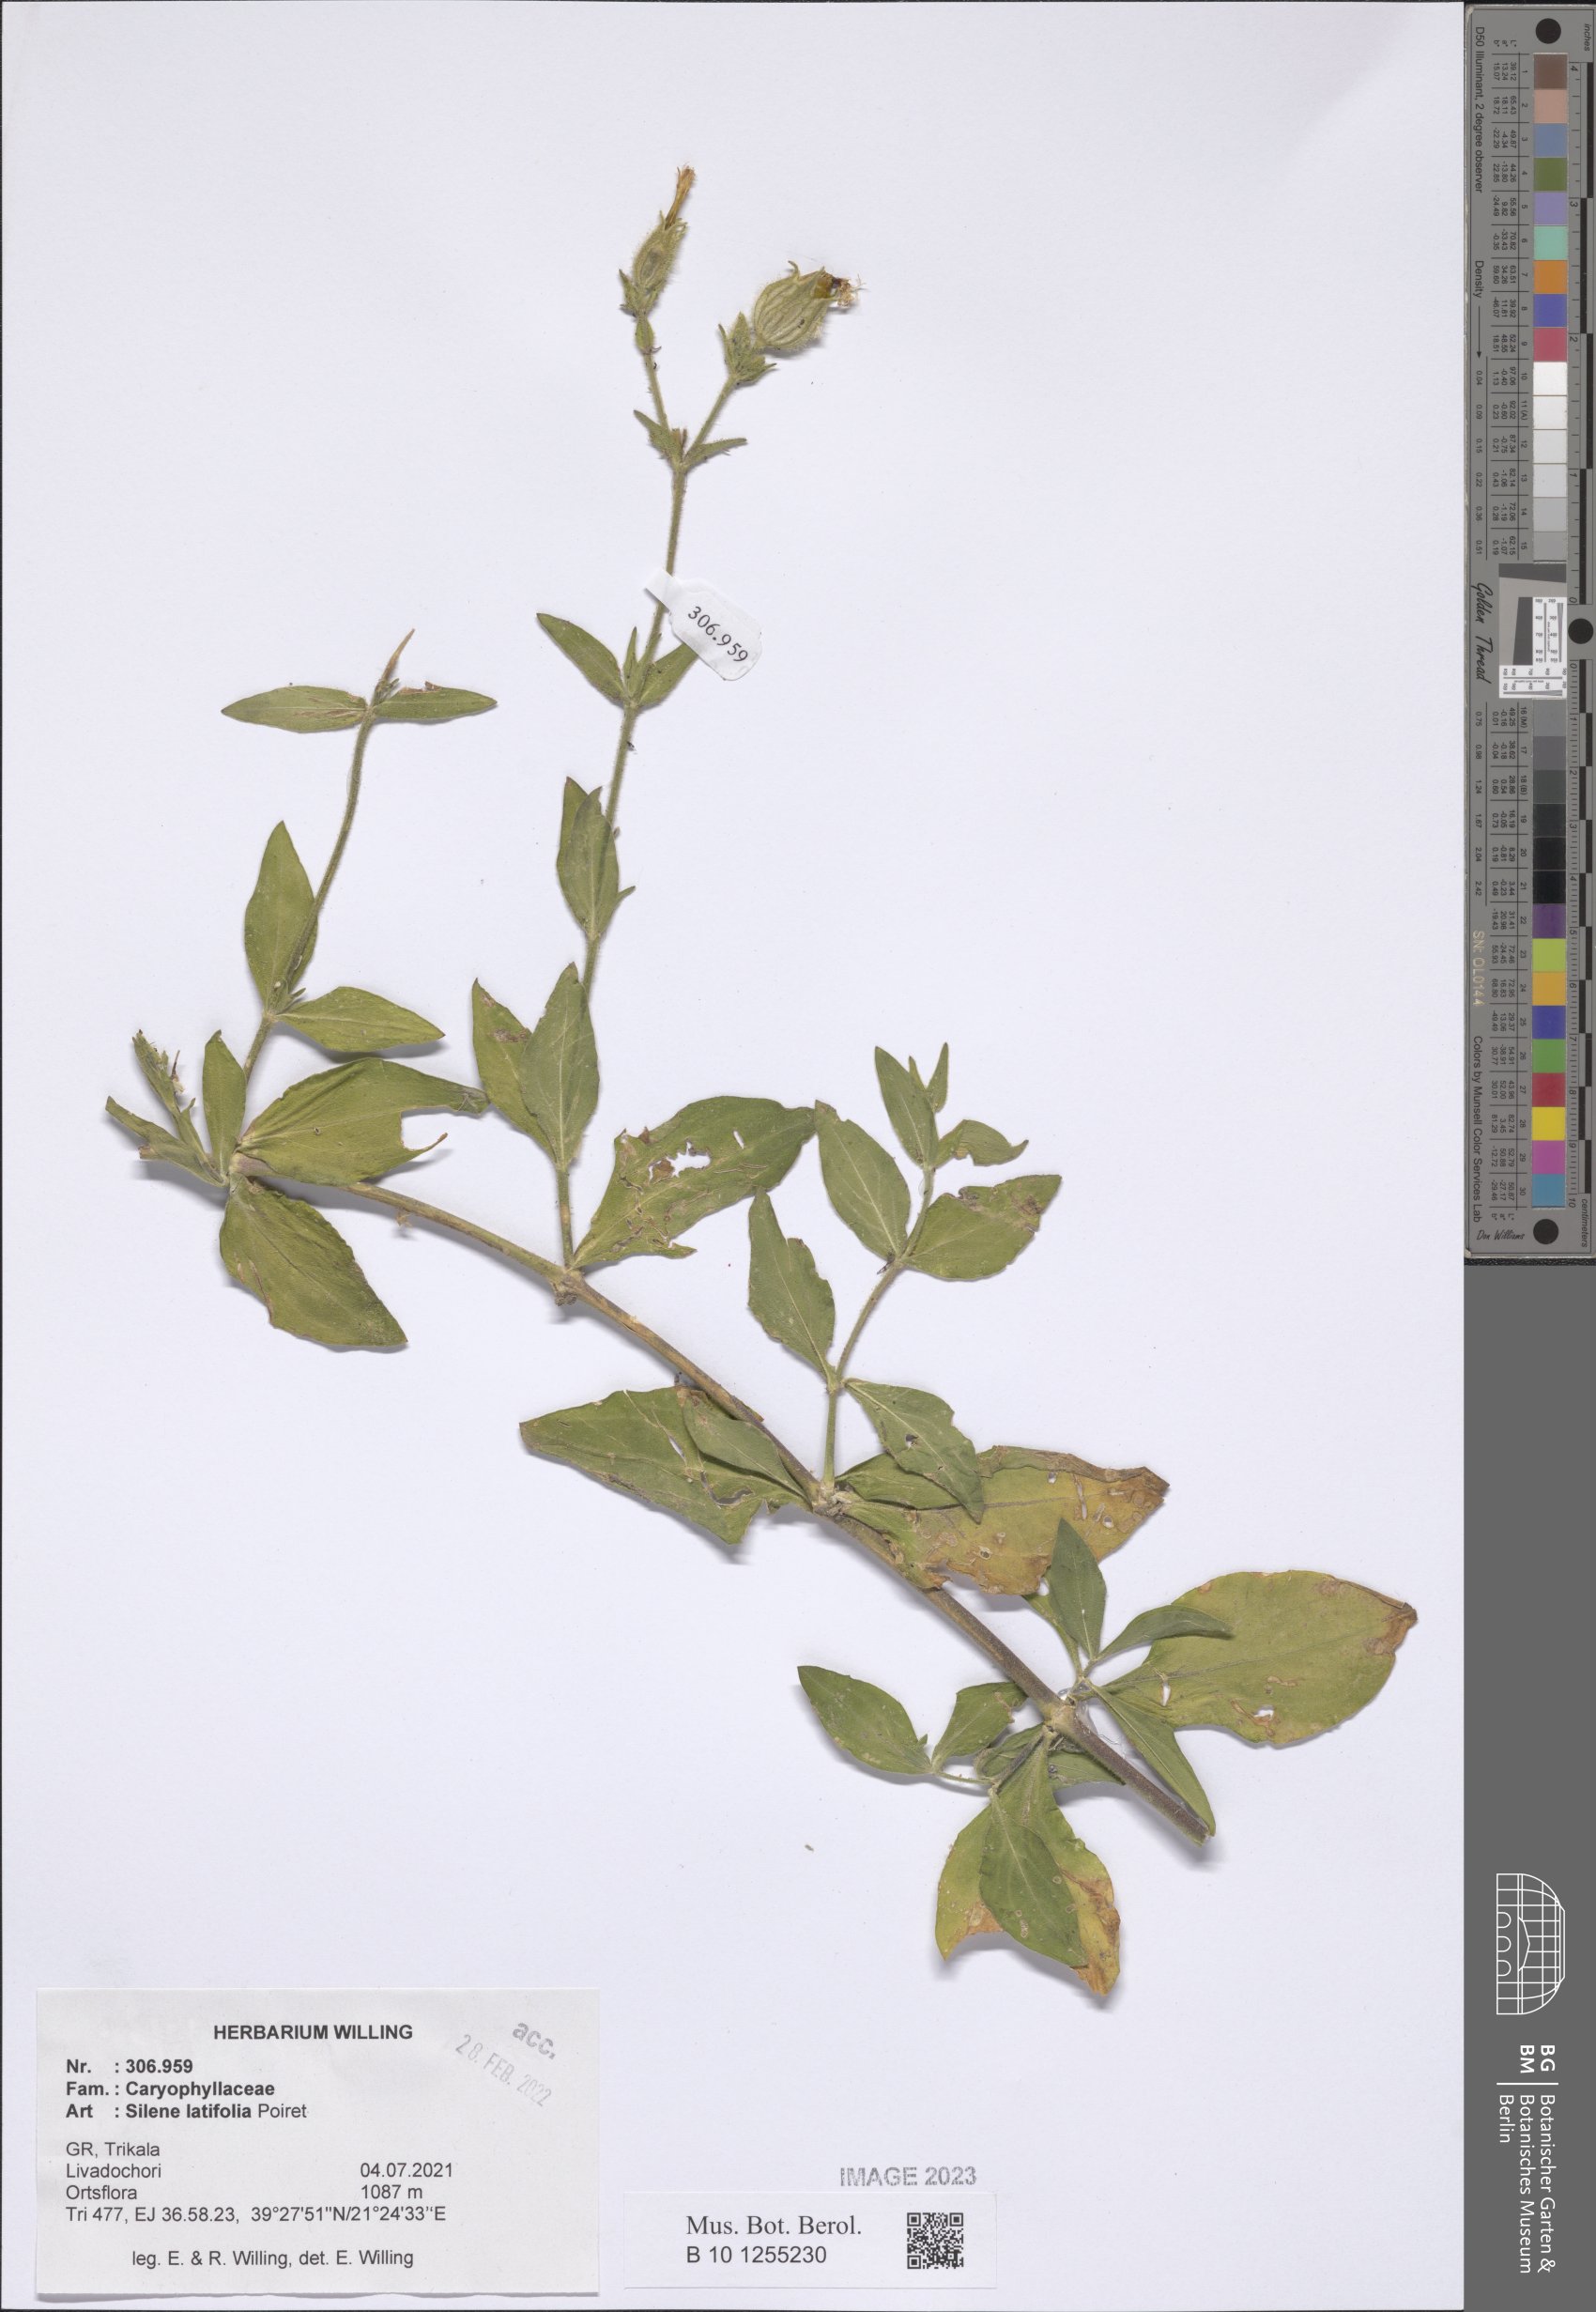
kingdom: Plantae
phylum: Tracheophyta
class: Magnoliopsida
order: Caryophyllales
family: Caryophyllaceae
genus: Silene
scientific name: Silene latifolia
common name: White campion
